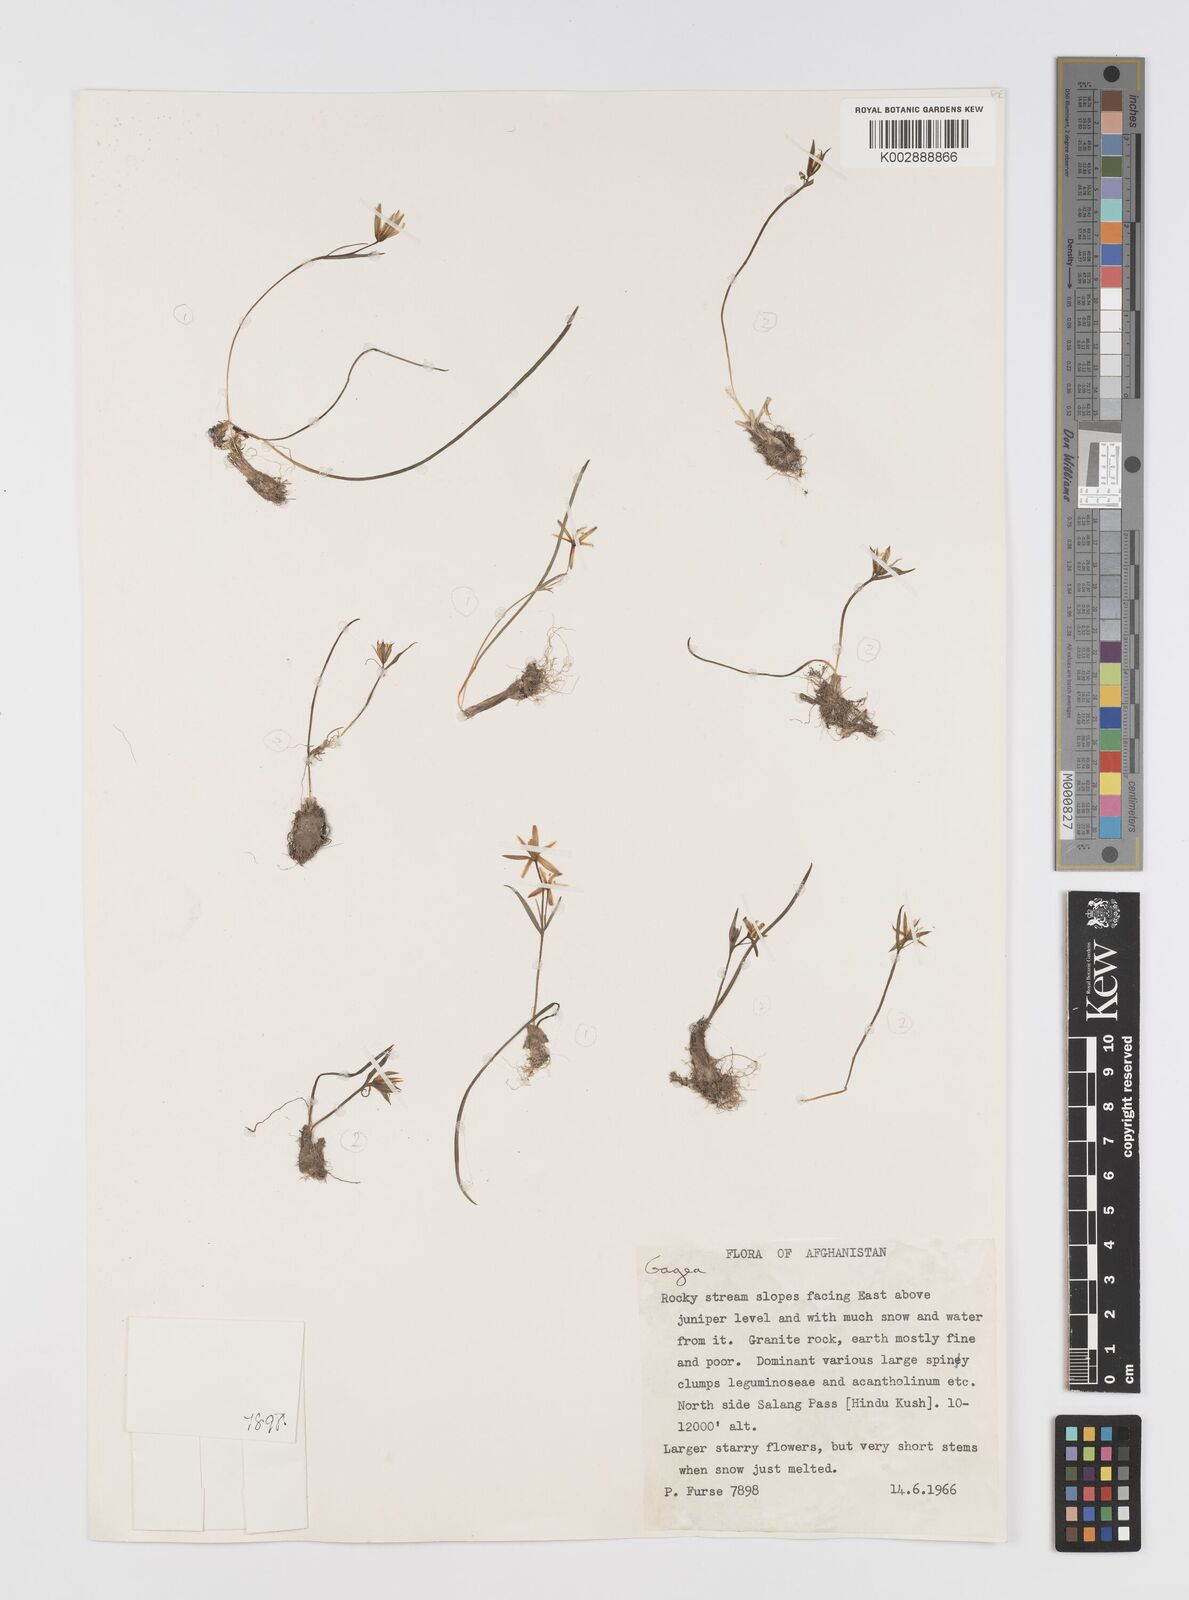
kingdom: Plantae
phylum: Tracheophyta
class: Liliopsida
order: Liliales
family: Liliaceae
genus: Gagea
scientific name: Gagea
